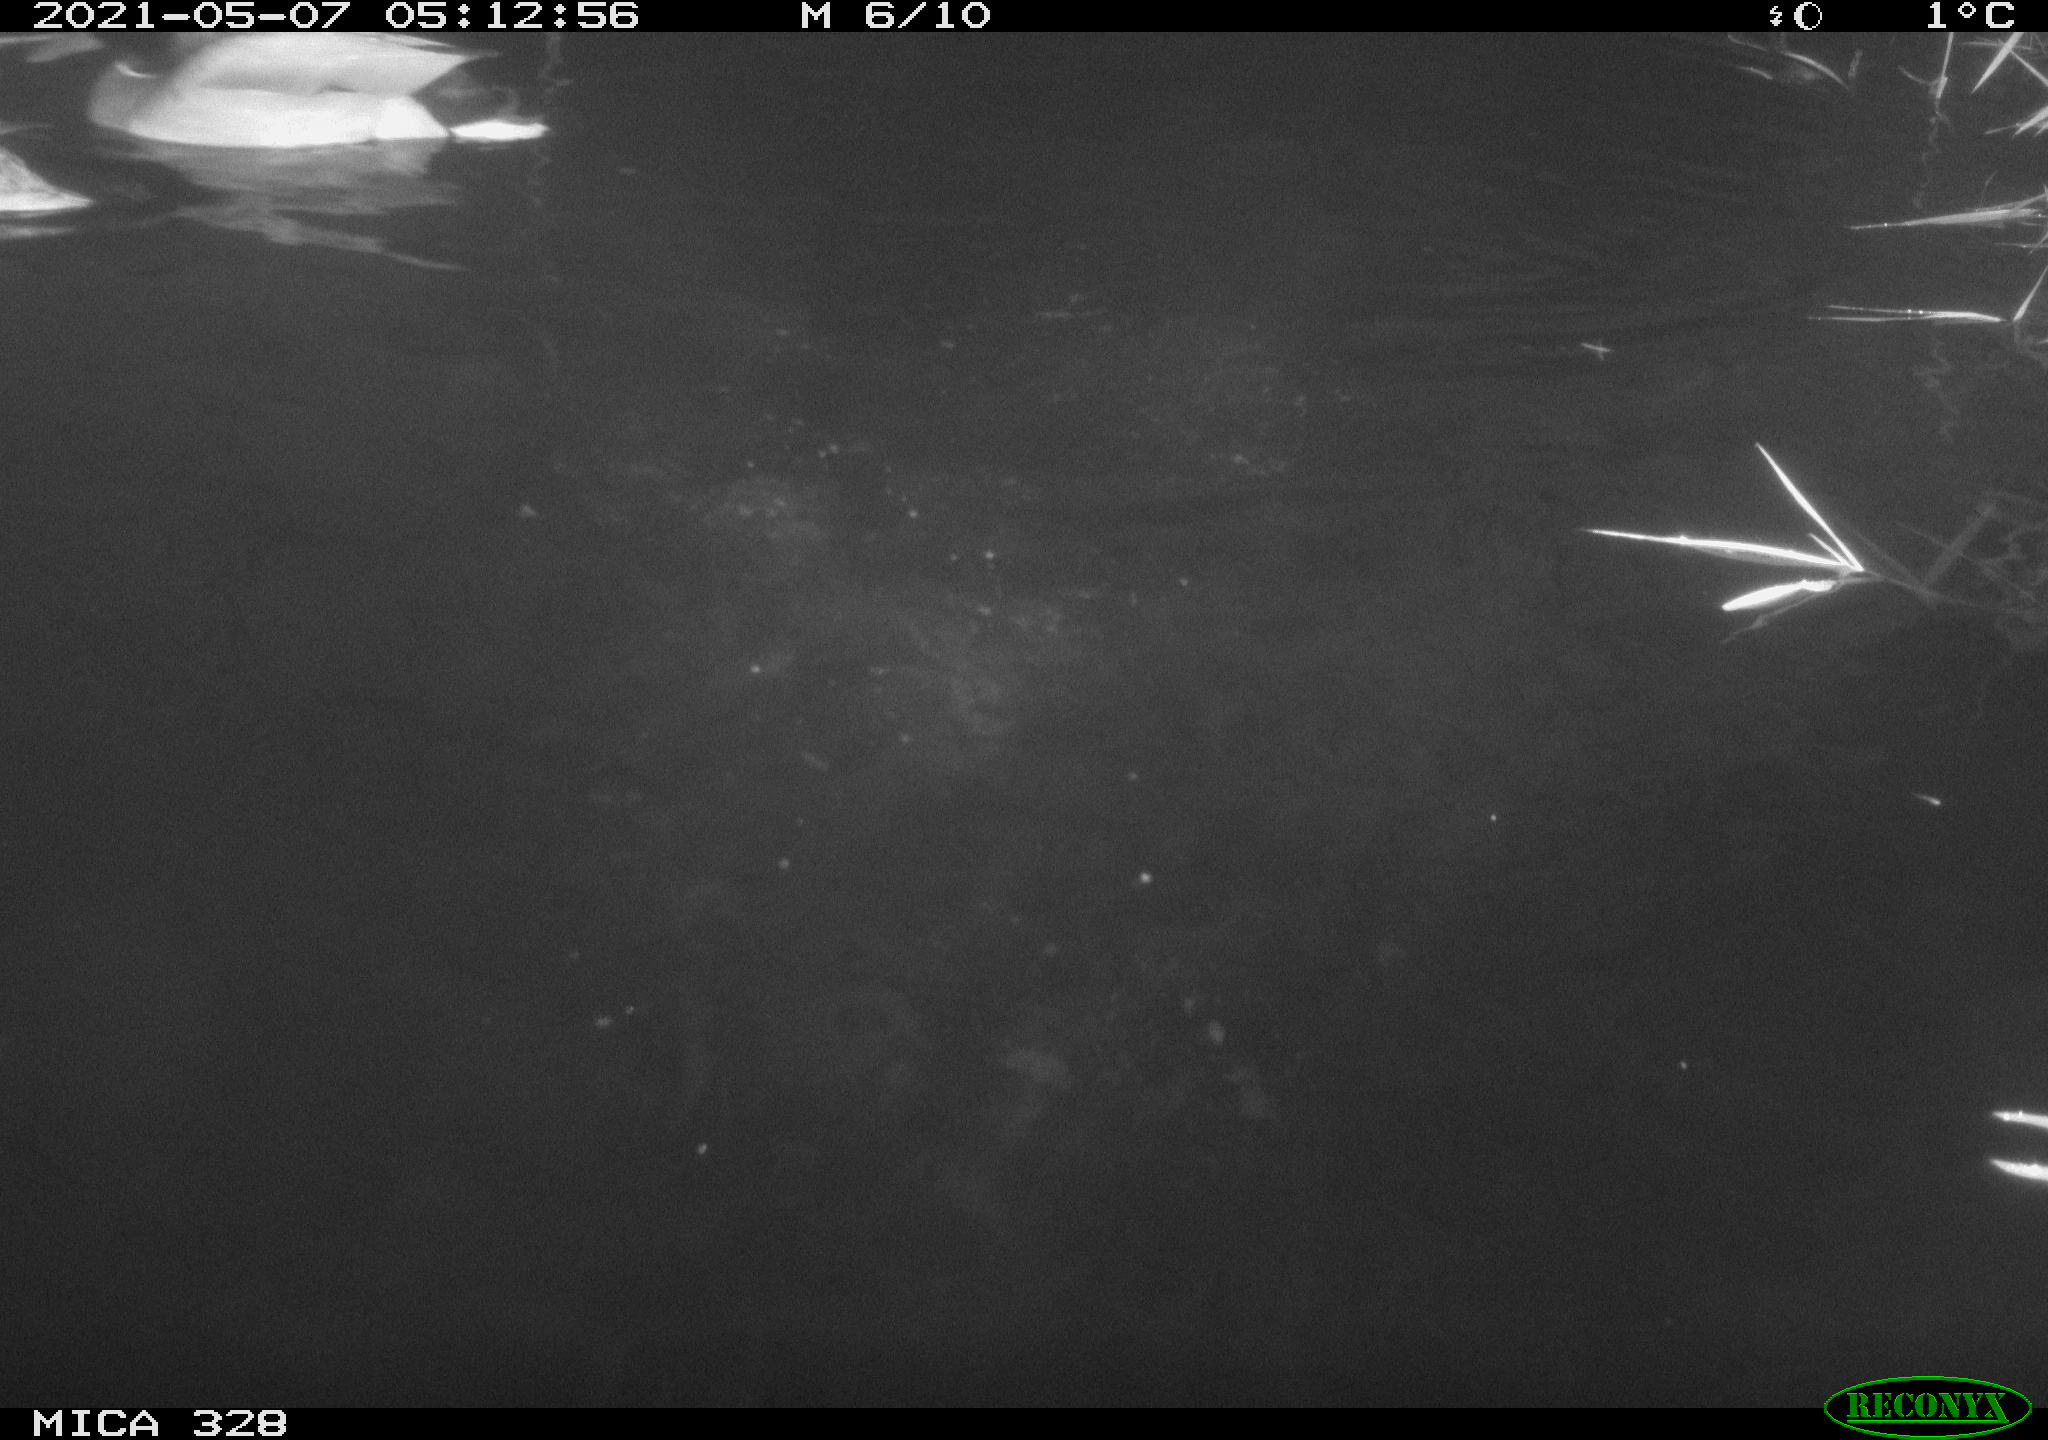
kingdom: Animalia
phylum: Chordata
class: Aves
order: Anseriformes
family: Anatidae
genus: Anas
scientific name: Anas platyrhynchos
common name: Mallard
